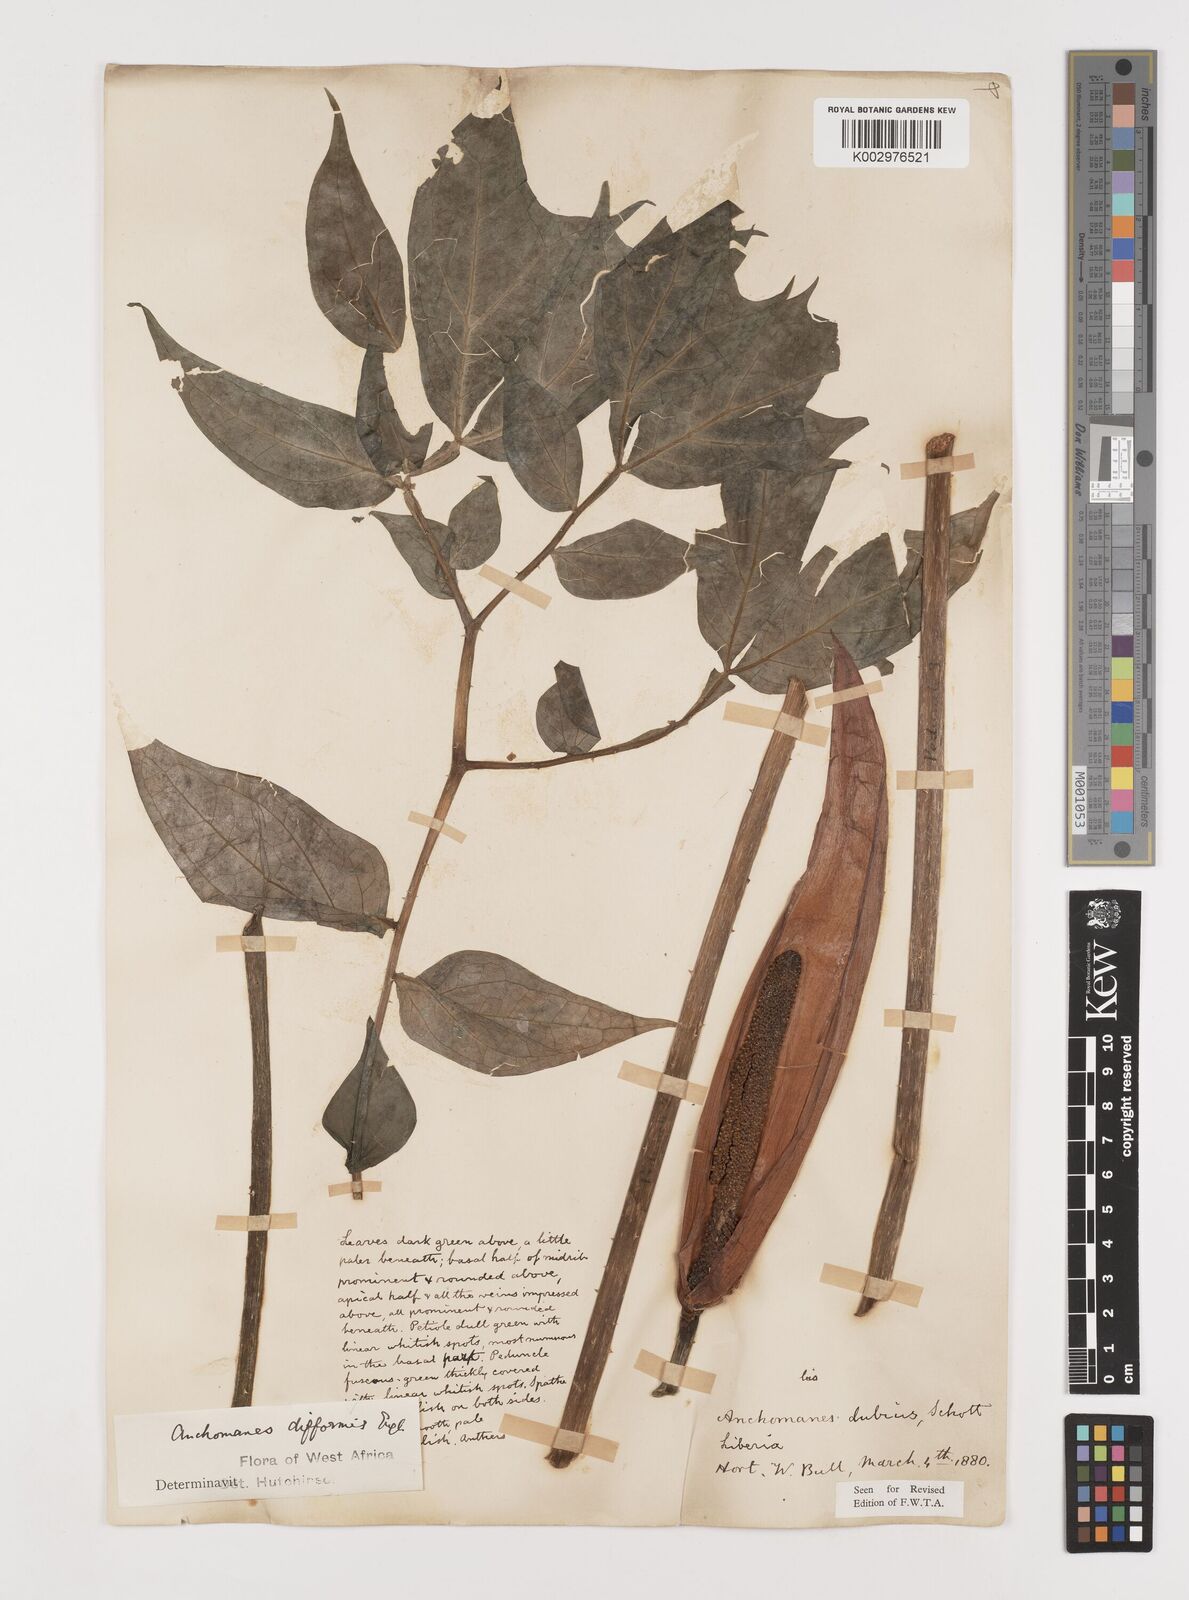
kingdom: Plantae
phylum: Tracheophyta
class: Liliopsida
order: Alismatales
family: Araceae
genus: Anchomanes
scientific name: Anchomanes difformis
